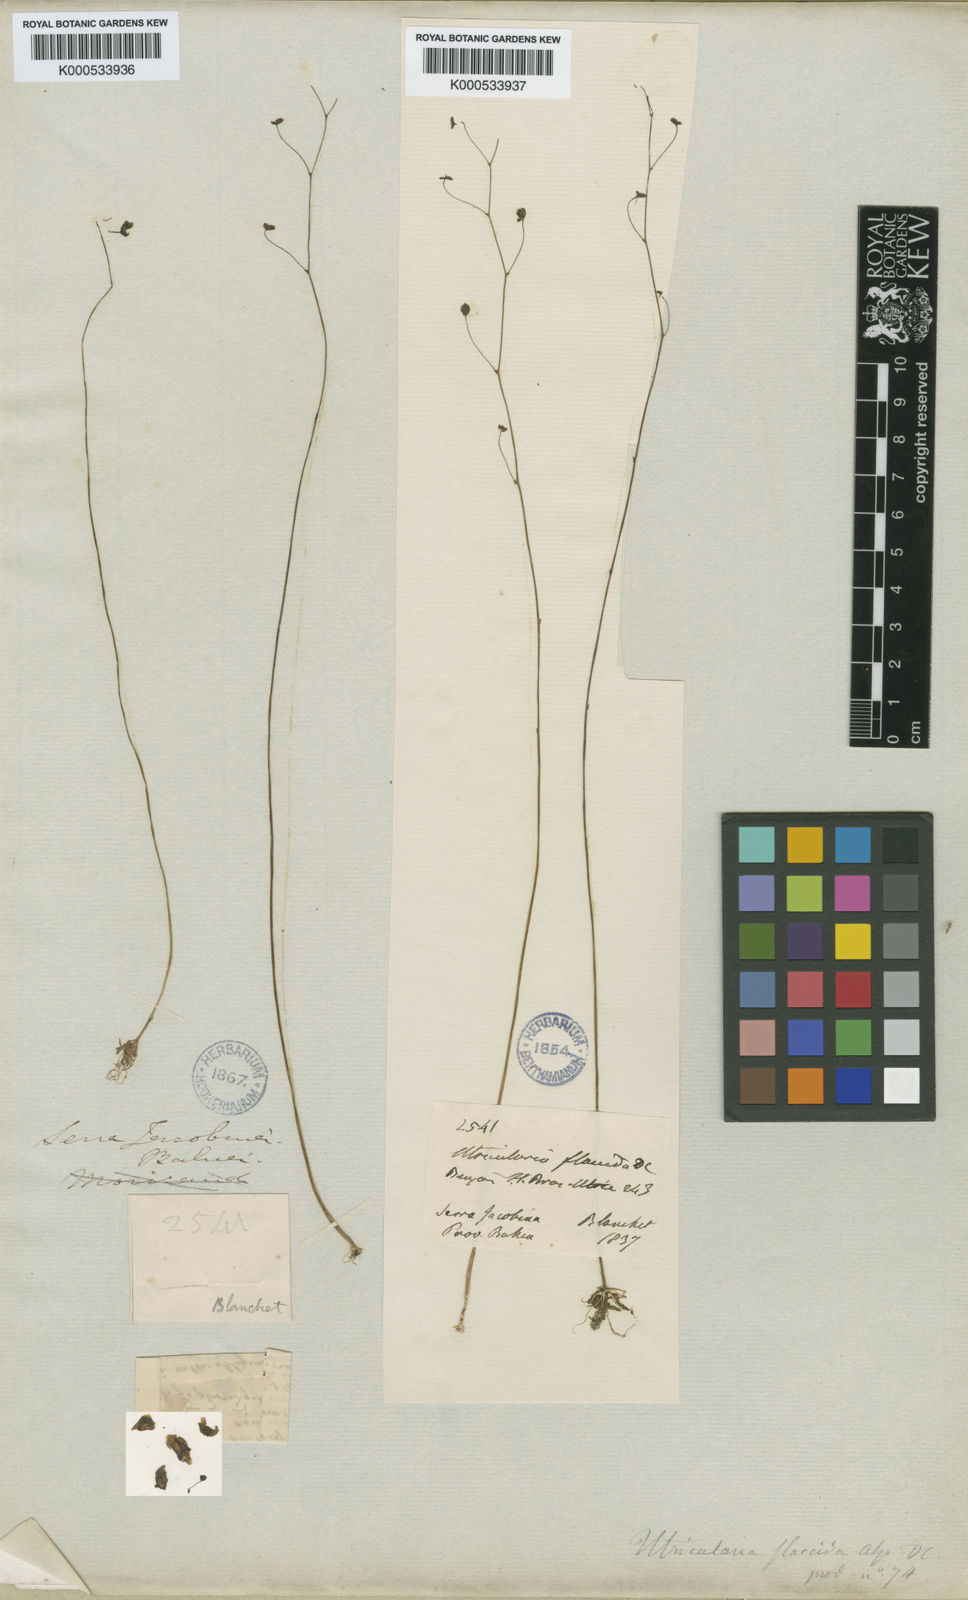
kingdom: Plantae
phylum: Tracheophyta
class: Magnoliopsida
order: Lamiales
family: Lentibulariaceae
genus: Utricularia
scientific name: Utricularia flaccida
